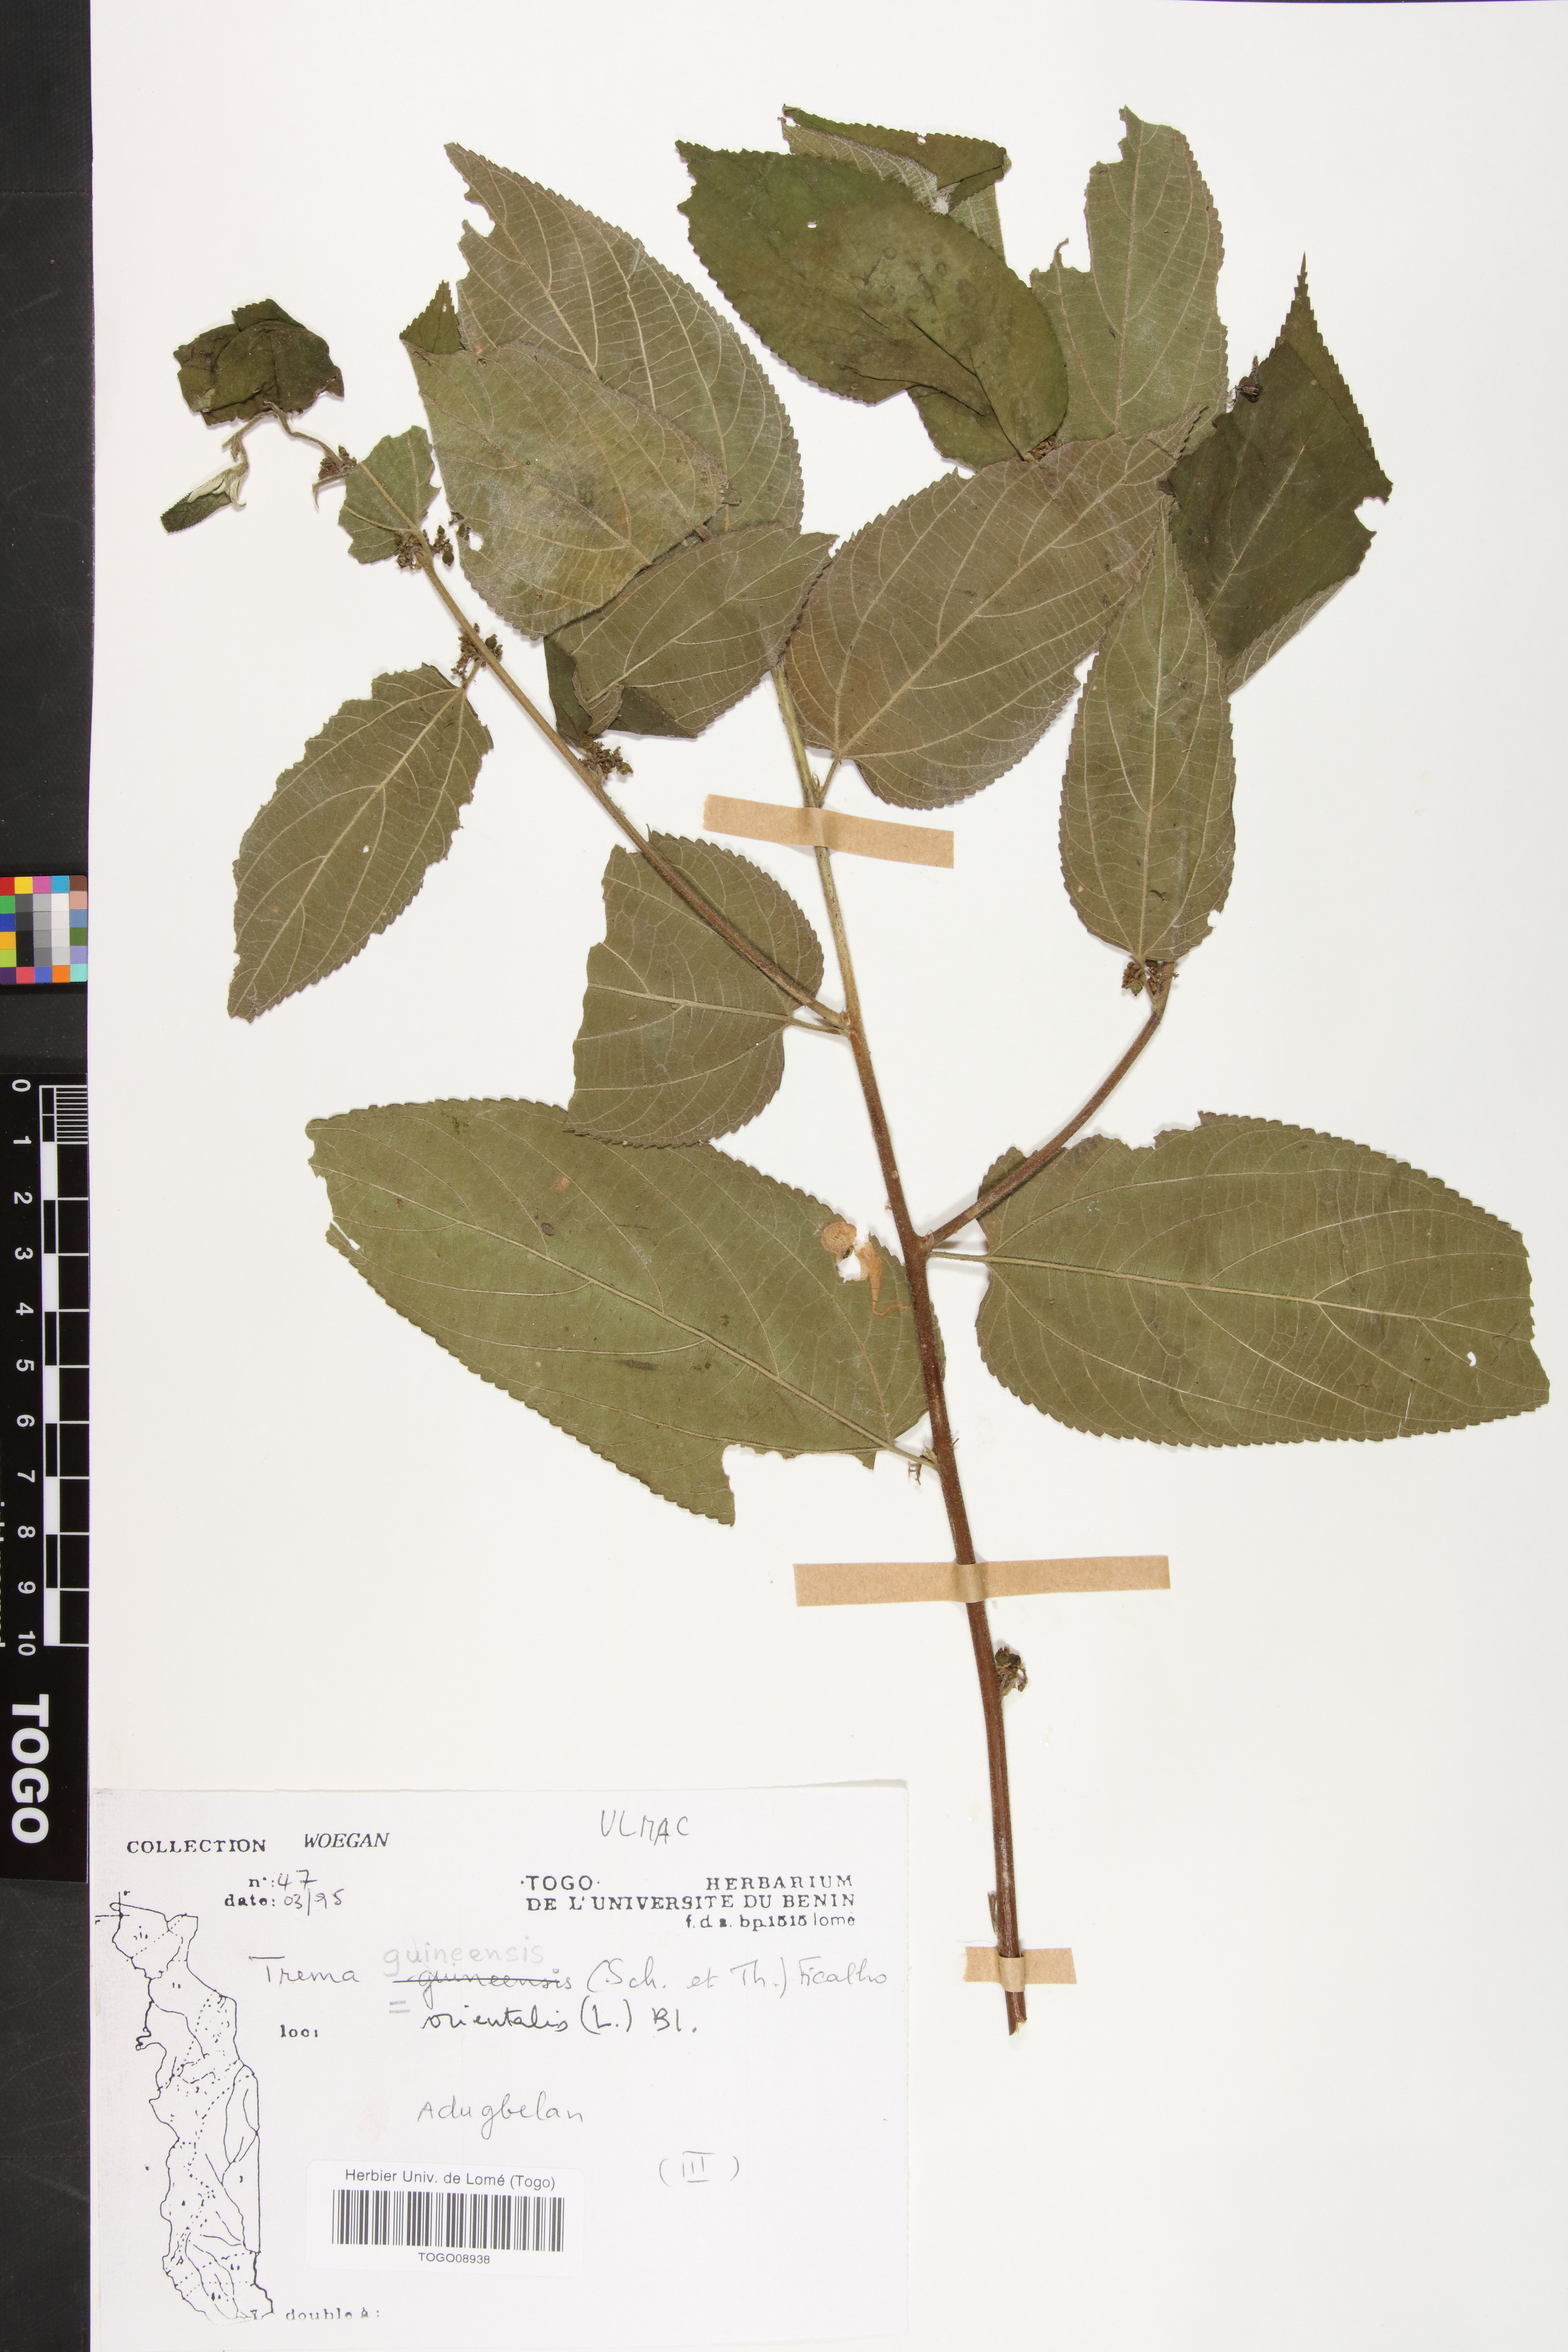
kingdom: Plantae
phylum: Tracheophyta
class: Magnoliopsida
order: Rosales
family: Cannabaceae
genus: Trema
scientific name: Trema orientale
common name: Indian charcoal tree
